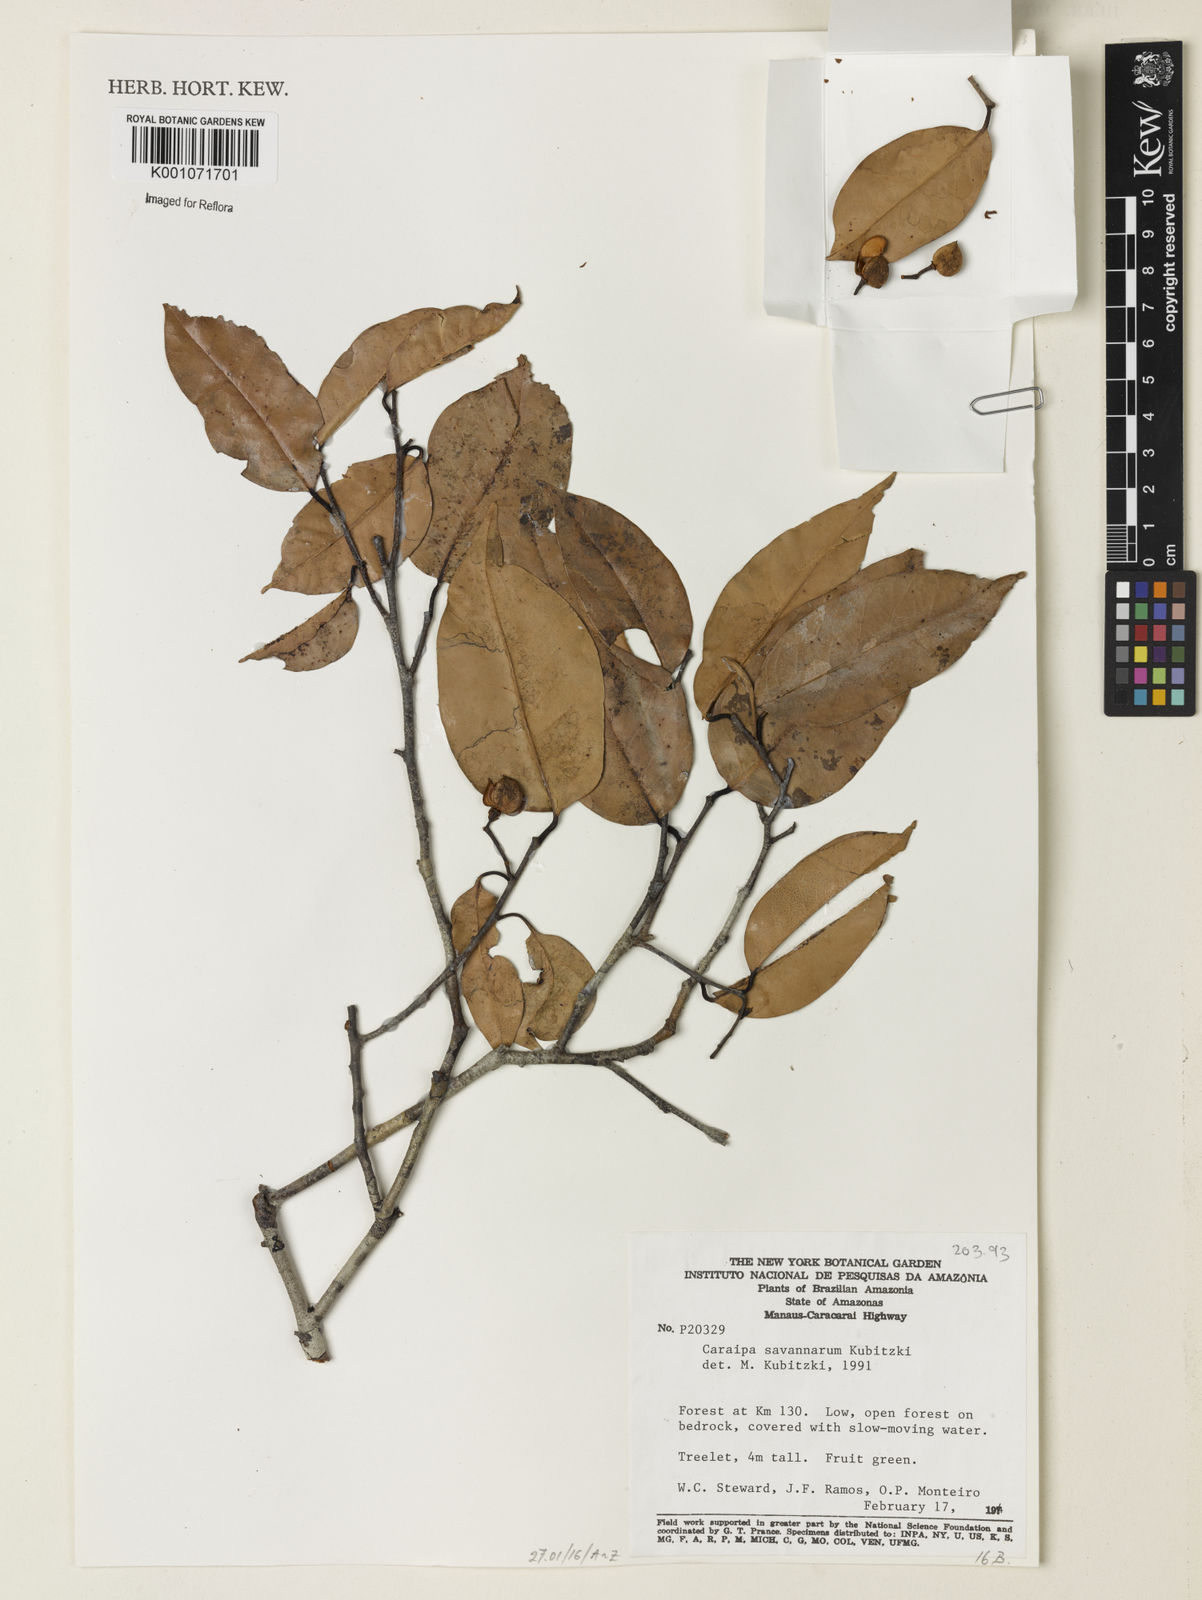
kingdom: Plantae
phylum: Tracheophyta
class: Magnoliopsida
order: Malpighiales
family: Calophyllaceae
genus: Caraipa
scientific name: Caraipa savannarum
